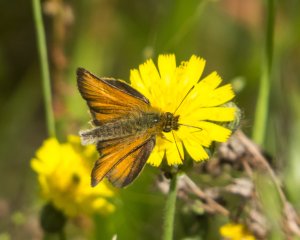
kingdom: Animalia
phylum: Arthropoda
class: Insecta
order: Lepidoptera
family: Hesperiidae
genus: Thymelicus
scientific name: Thymelicus lineola
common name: European Skipper
